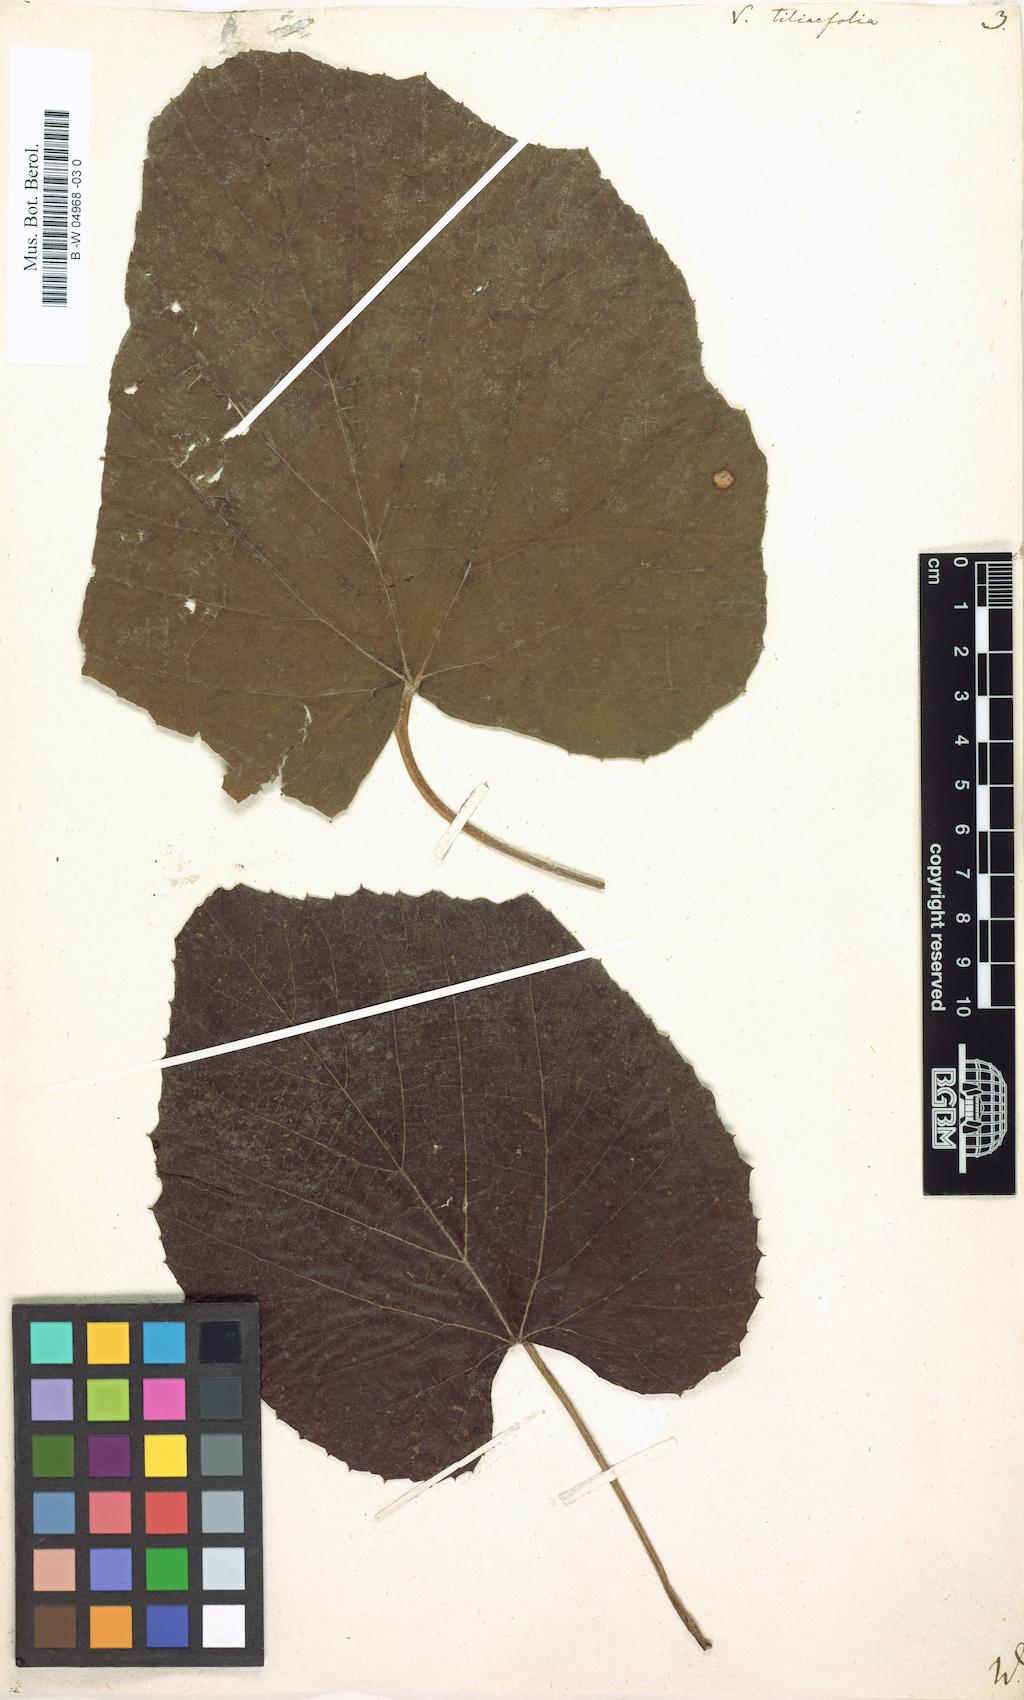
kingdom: Plantae
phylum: Tracheophyta
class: Magnoliopsida
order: Vitales
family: Vitaceae
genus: Vitis
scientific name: Vitis tiliifolia
